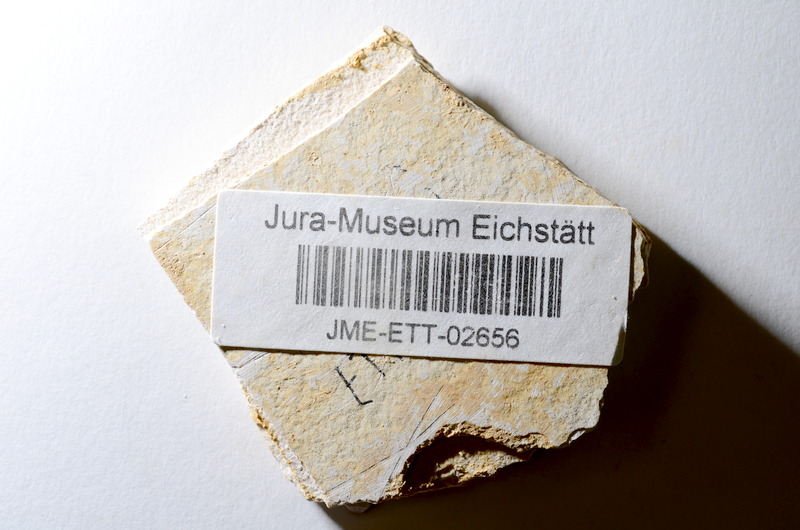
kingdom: Animalia
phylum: Chordata
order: Salmoniformes
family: Orthogonikleithridae
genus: Orthogonikleithrus
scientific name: Orthogonikleithrus hoelli
